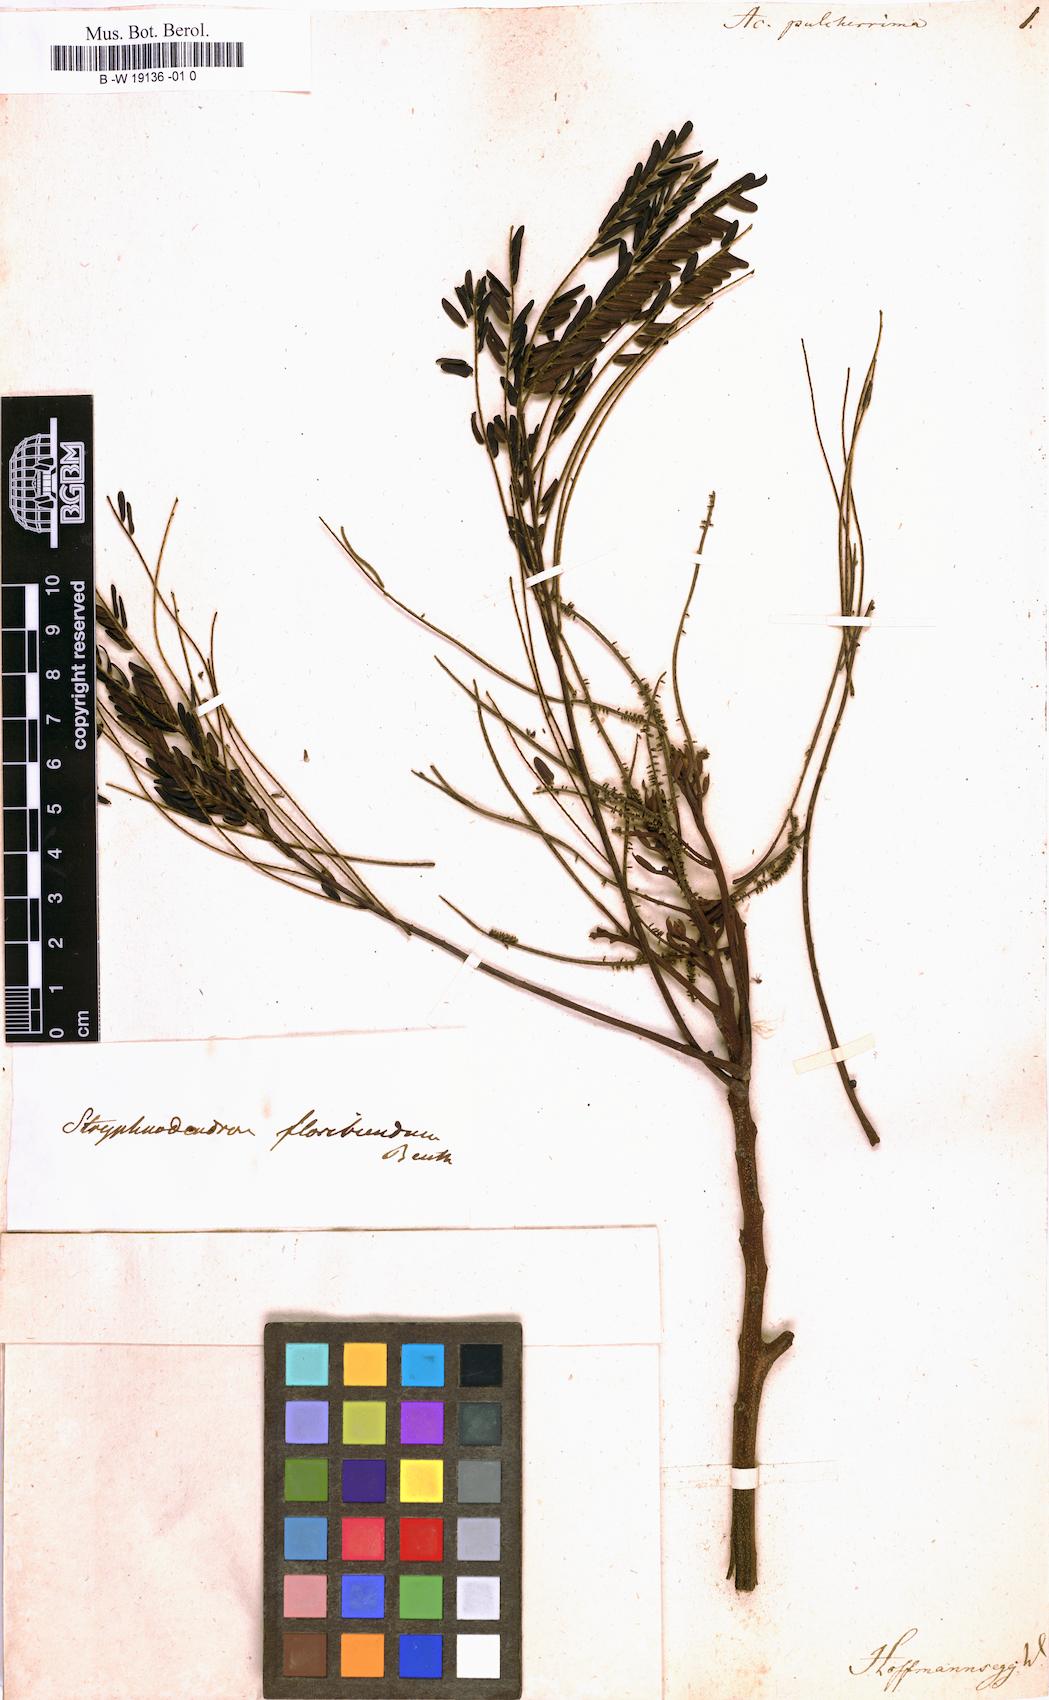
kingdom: Plantae
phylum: Tracheophyta
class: Magnoliopsida
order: Fabales
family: Fabaceae
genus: Stryphnodendron
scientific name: Stryphnodendron pulcherrimum
